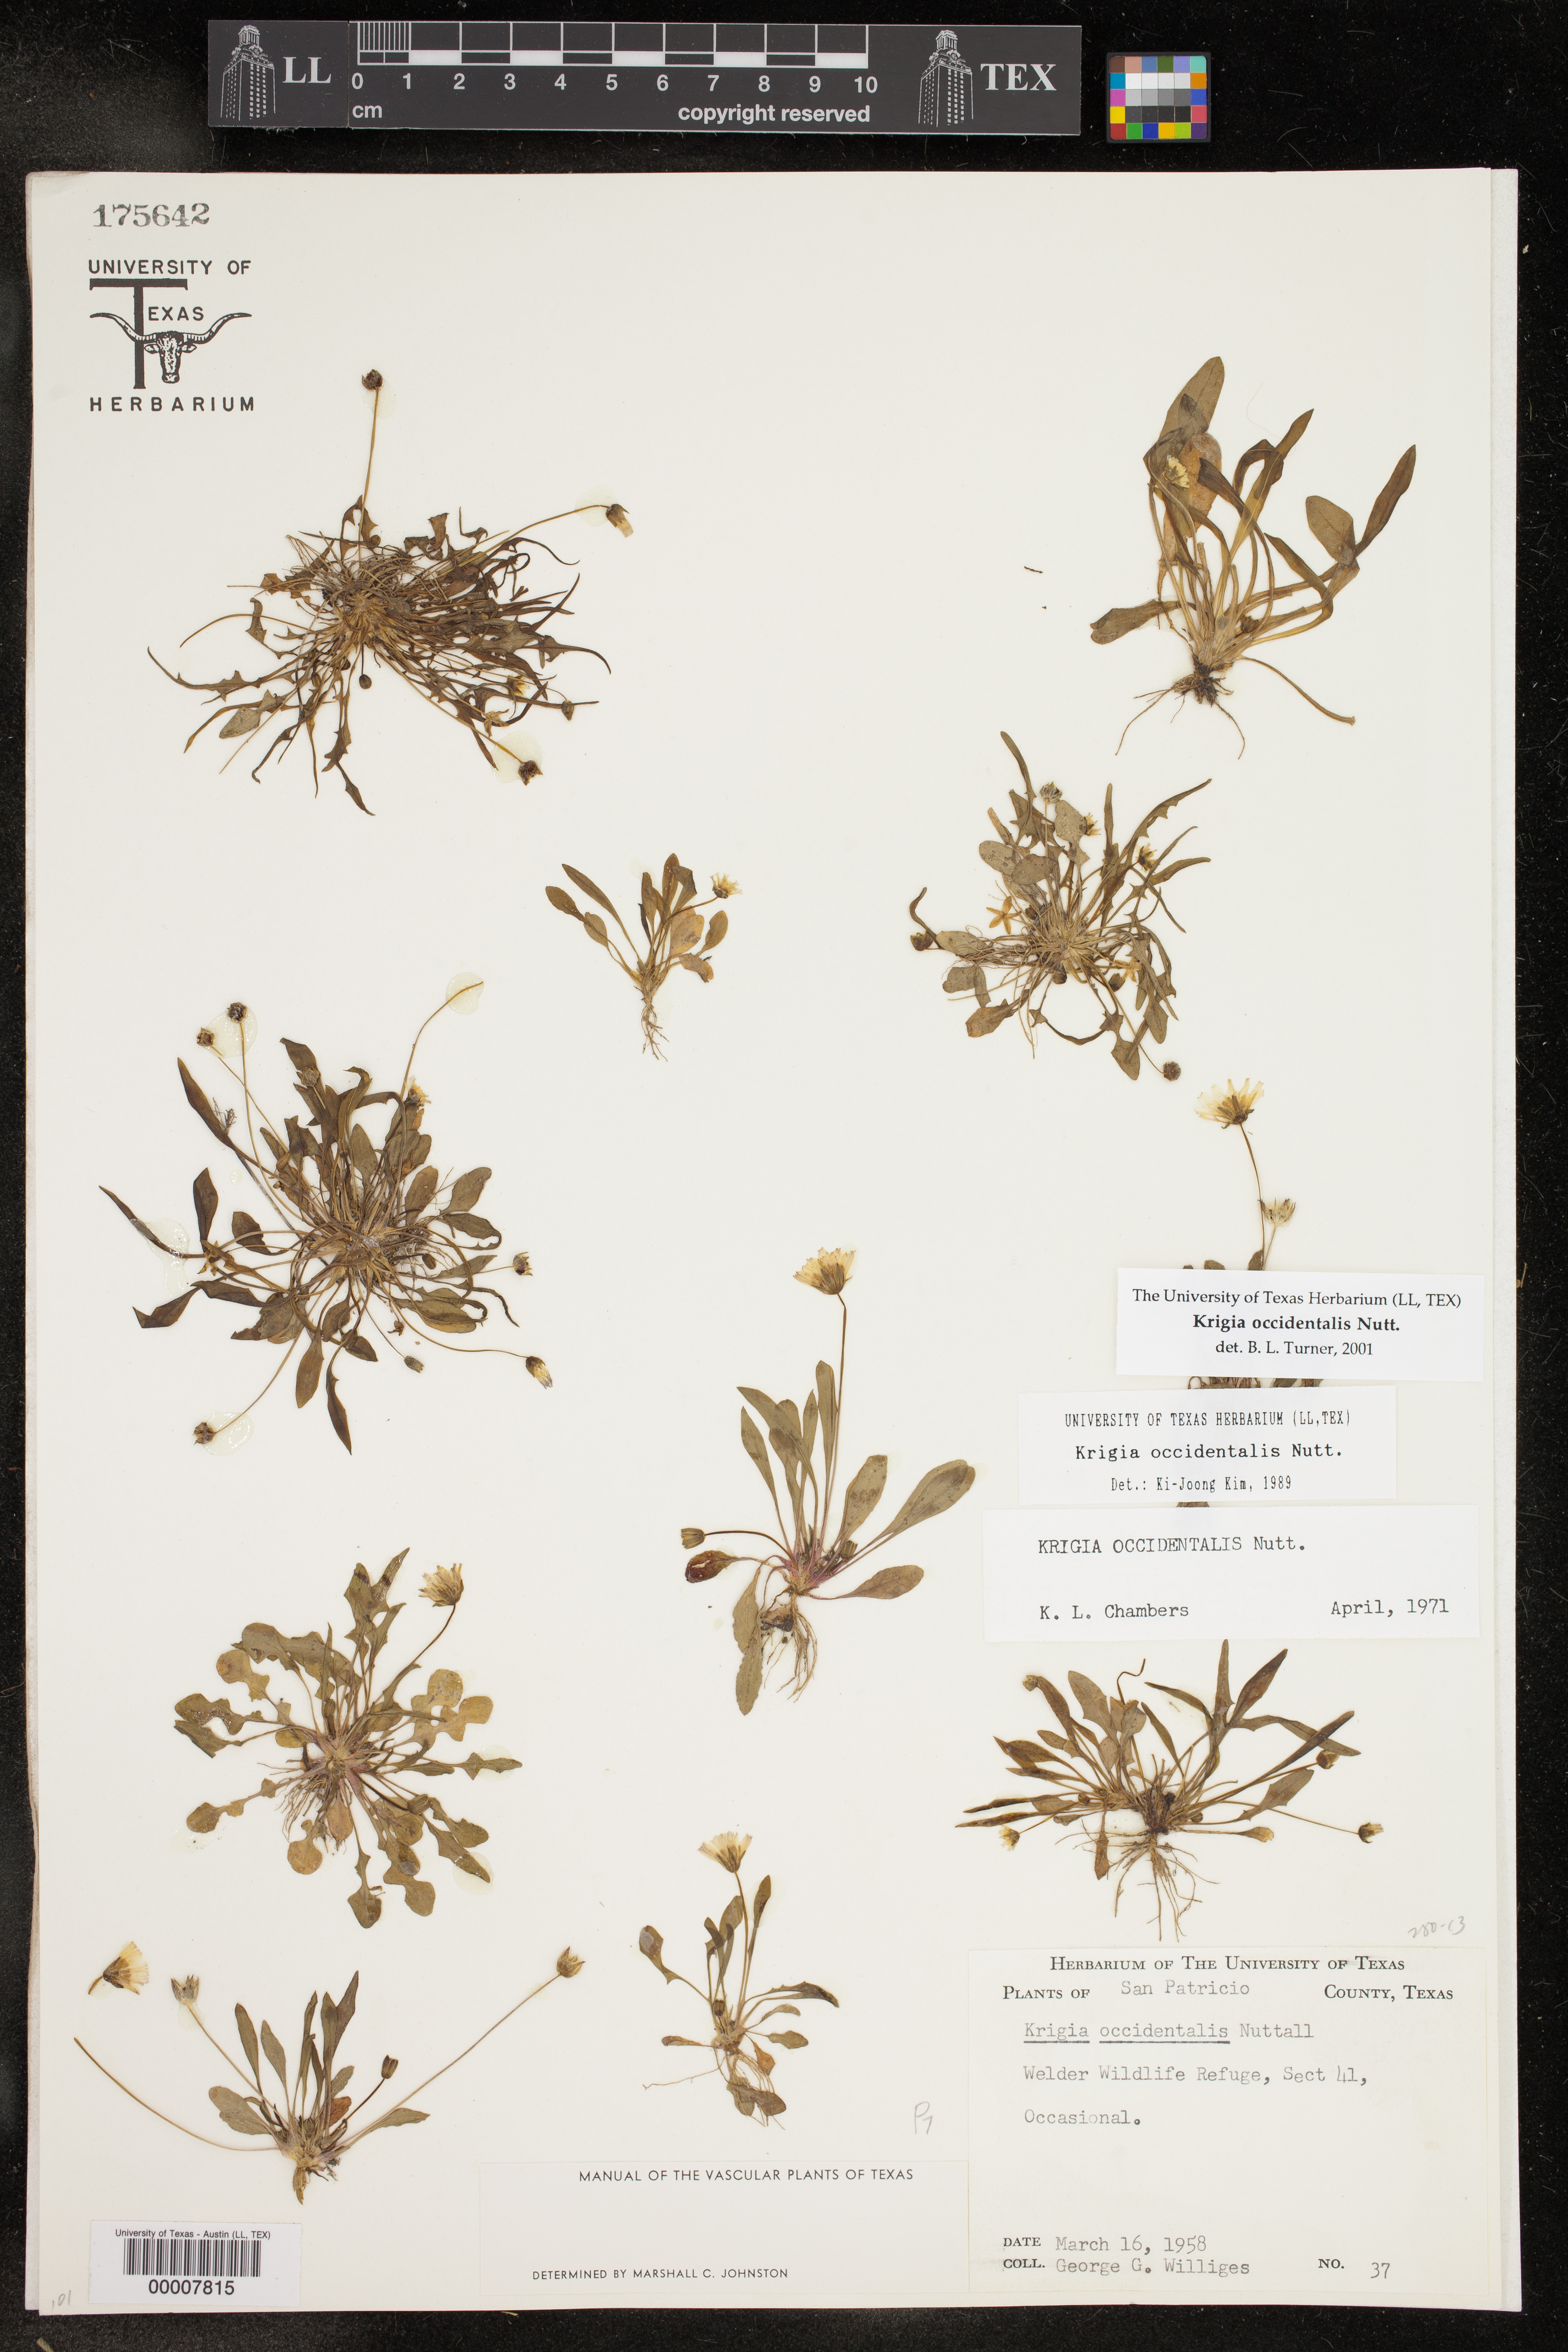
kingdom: Plantae
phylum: Tracheophyta
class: Magnoliopsida
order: Asterales
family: Asteraceae
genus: Krigia
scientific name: Krigia occidentalis
